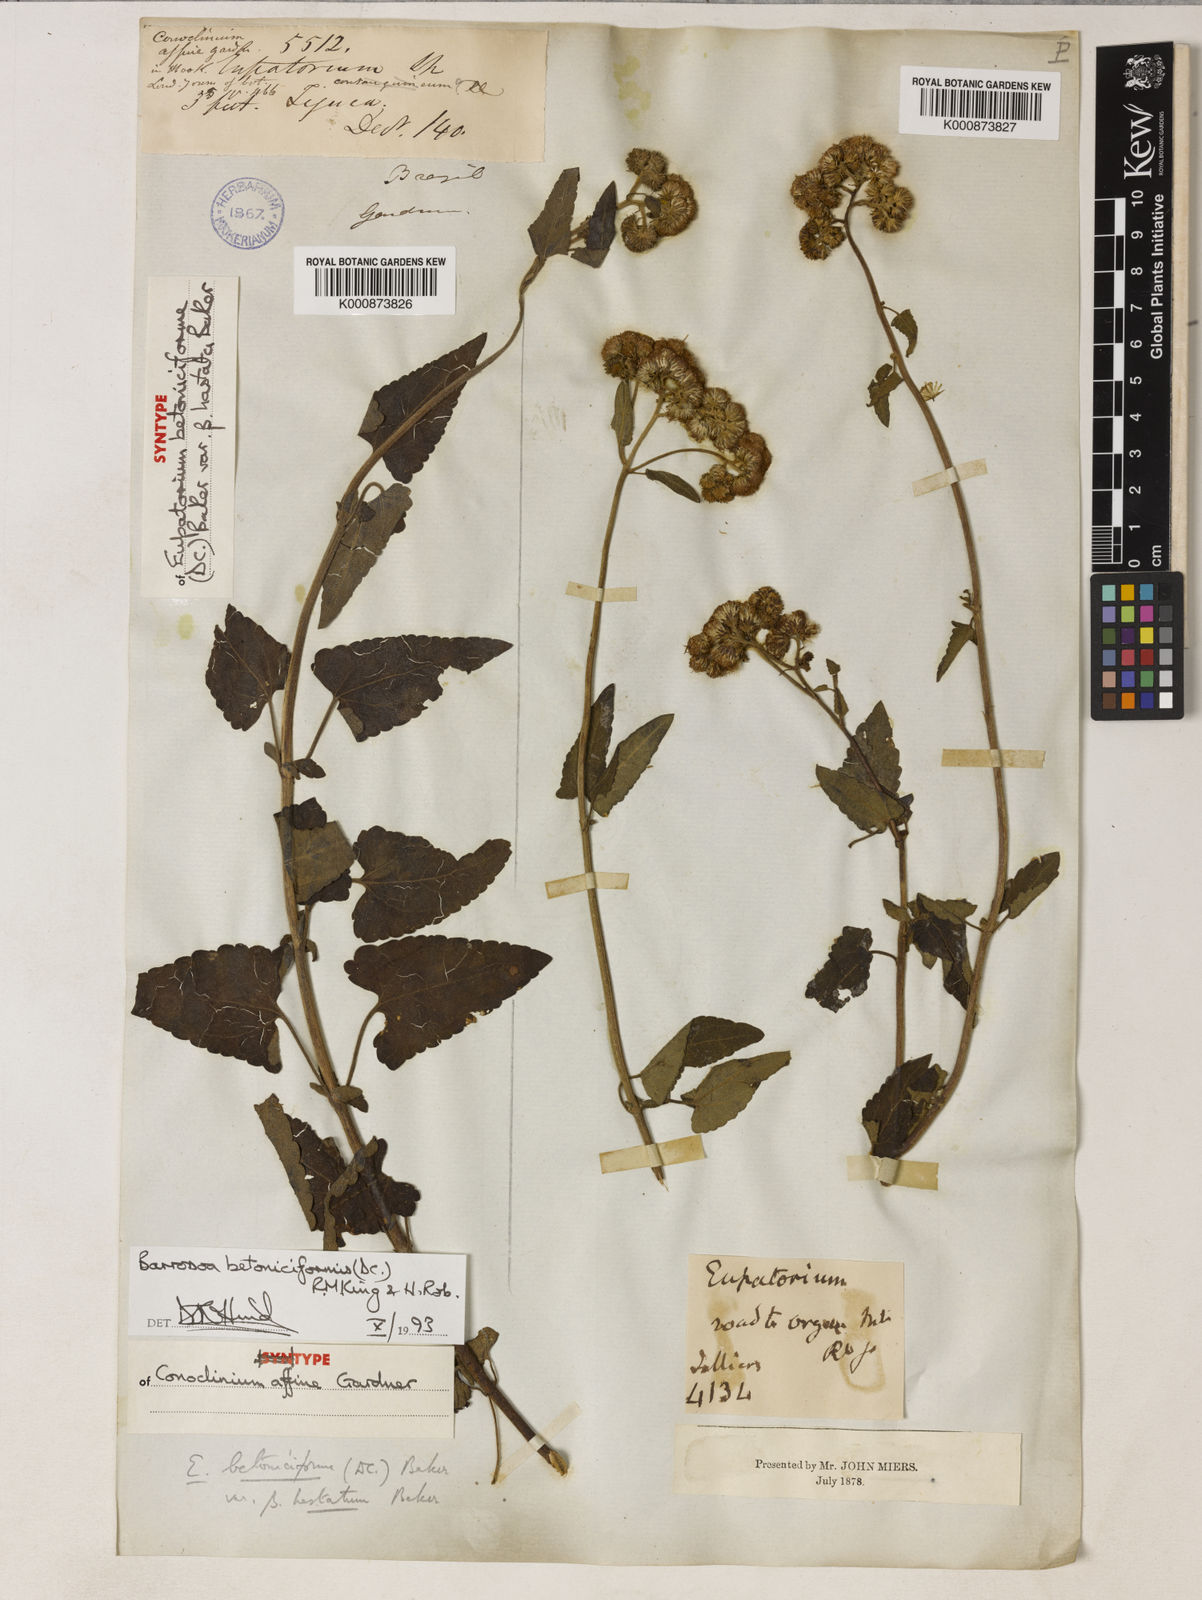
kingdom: Plantae
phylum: Tracheophyta
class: Magnoliopsida
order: Asterales
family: Asteraceae
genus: Barrosoa
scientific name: Barrosoa betoniciformis
